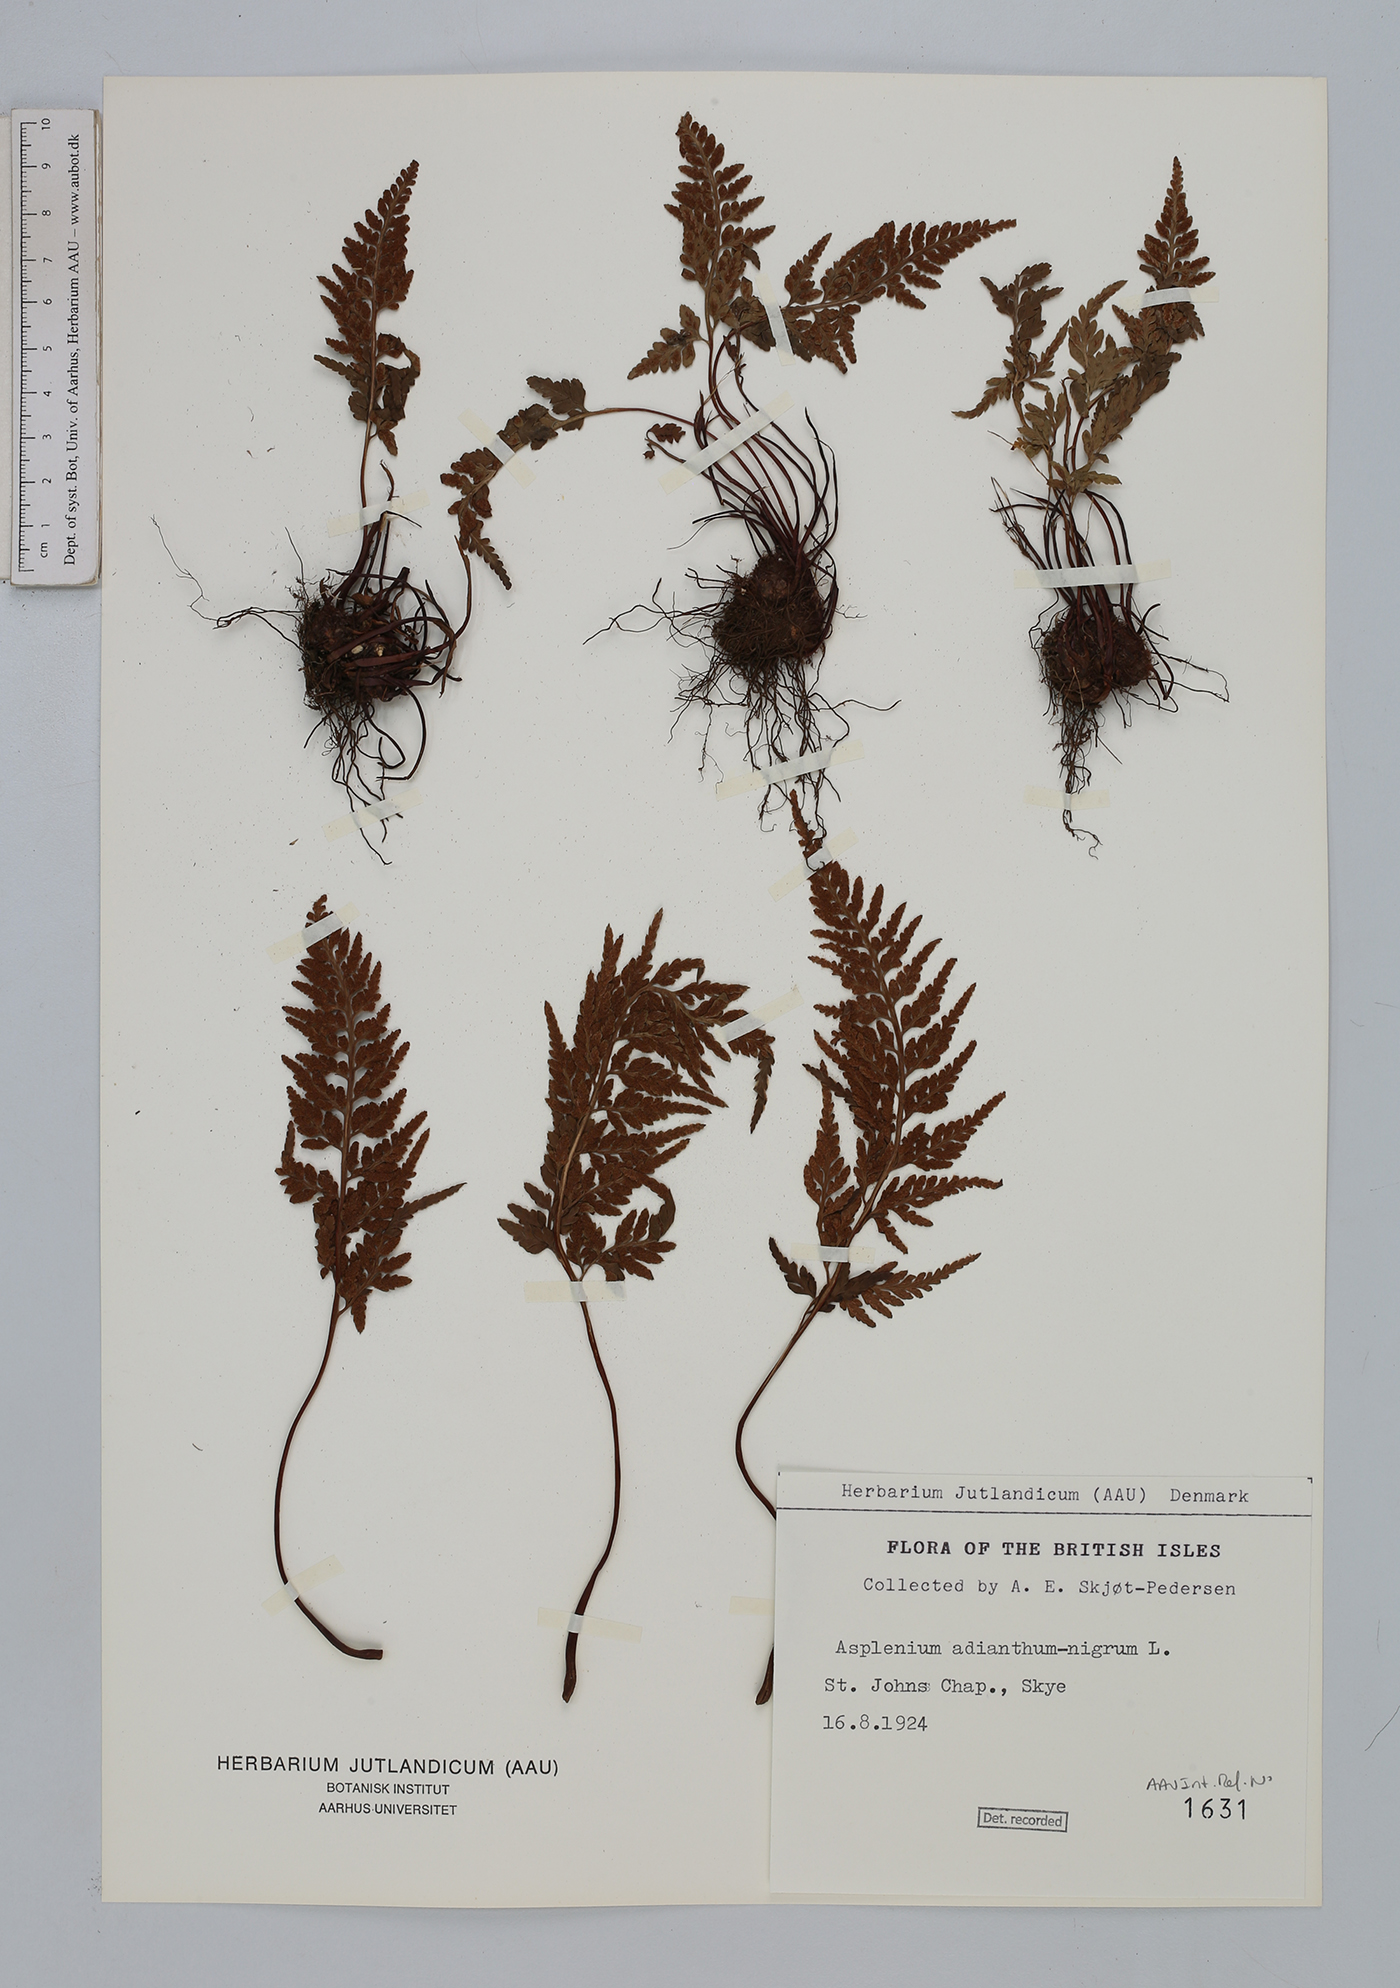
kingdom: Plantae
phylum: Tracheophyta
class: Polypodiopsida
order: Polypodiales
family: Aspleniaceae
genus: Asplenium
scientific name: Asplenium adiantum-nigrum
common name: Black spleenwort
